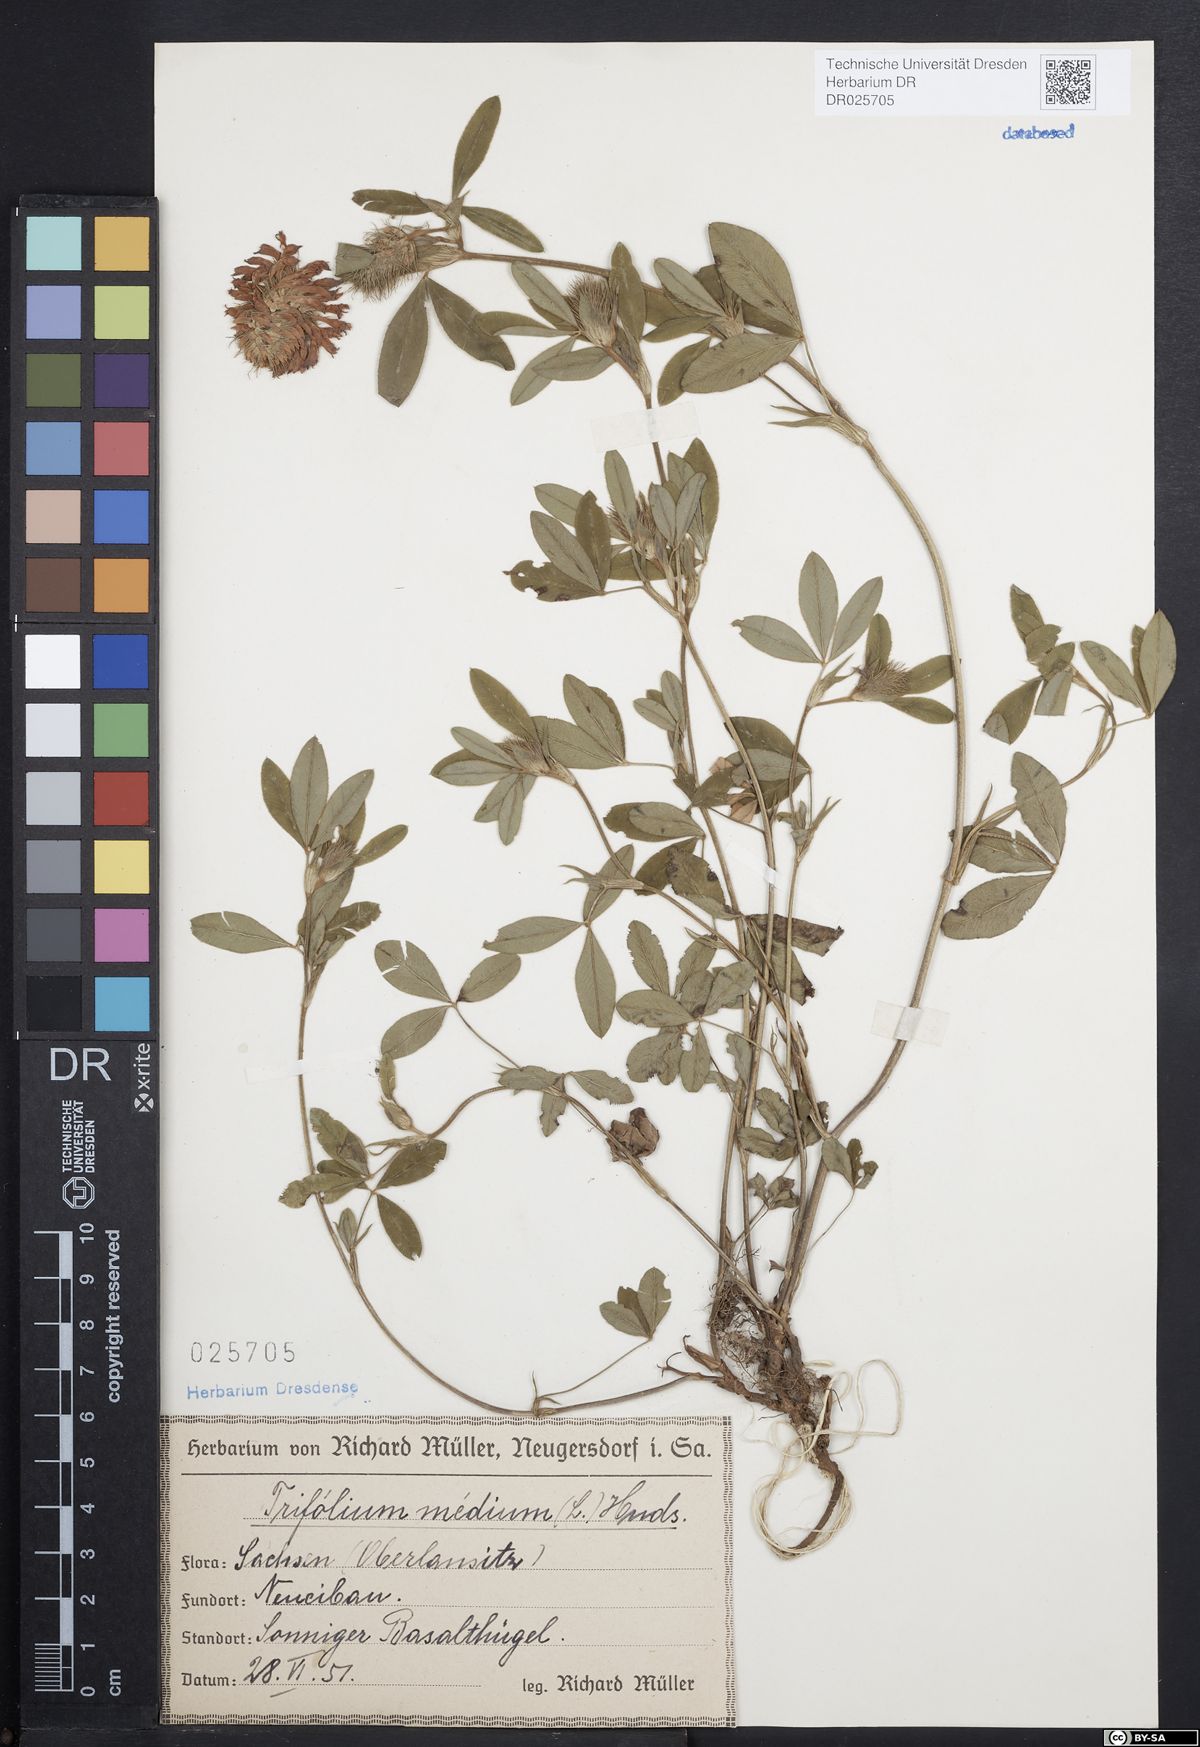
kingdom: Plantae
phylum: Tracheophyta
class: Magnoliopsida
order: Fabales
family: Fabaceae
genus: Trifolium
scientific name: Trifolium medium
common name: Zigzag clover
